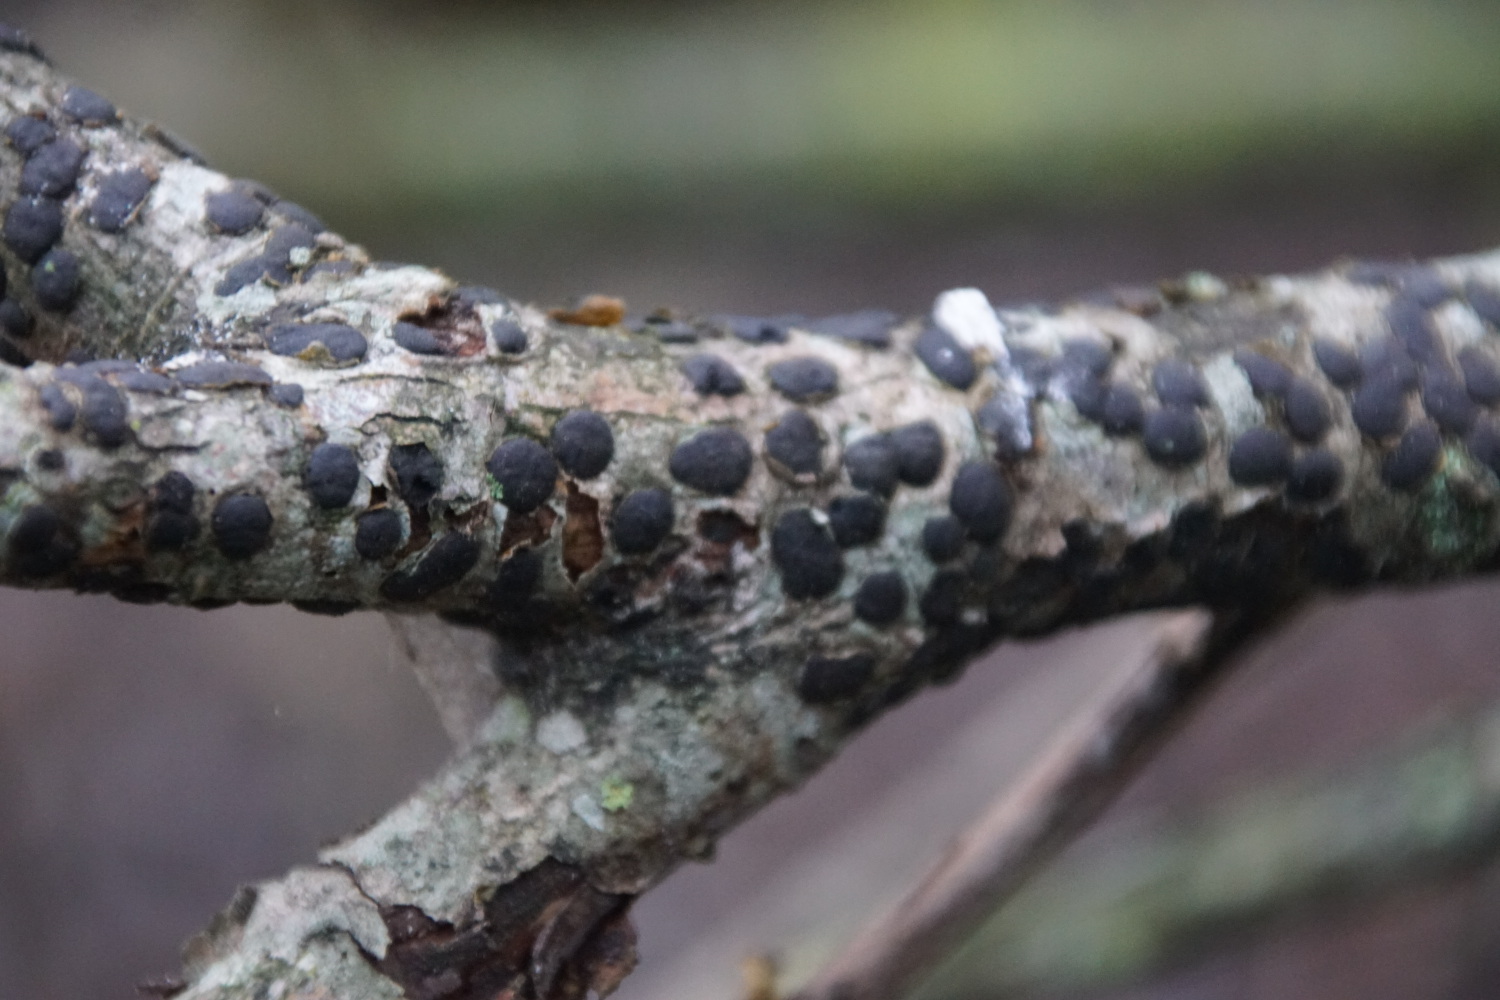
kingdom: Fungi
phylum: Ascomycota
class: Sordariomycetes
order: Xylariales
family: Diatrypaceae
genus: Diatrype
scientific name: Diatrype bullata
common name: pile-kulskorpe
